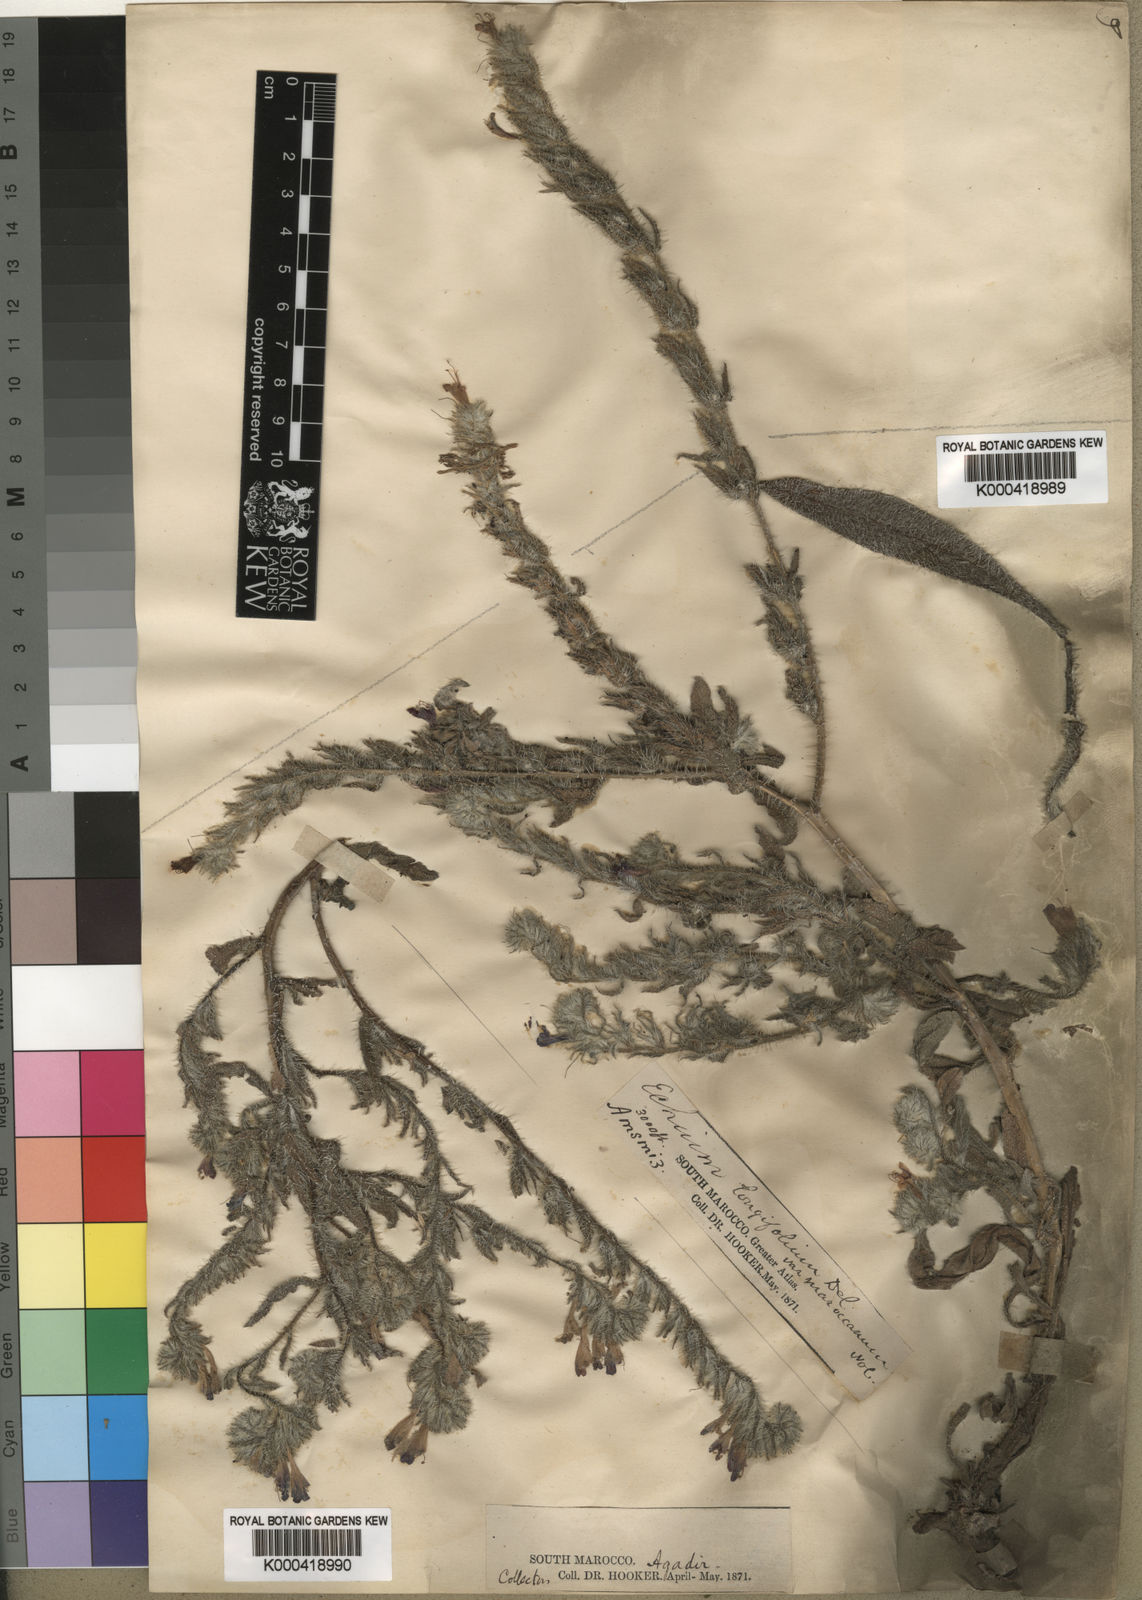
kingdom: Plantae
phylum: Tracheophyta
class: Magnoliopsida
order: Boraginales
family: Boraginaceae
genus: Echium
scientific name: Echium longifolium
